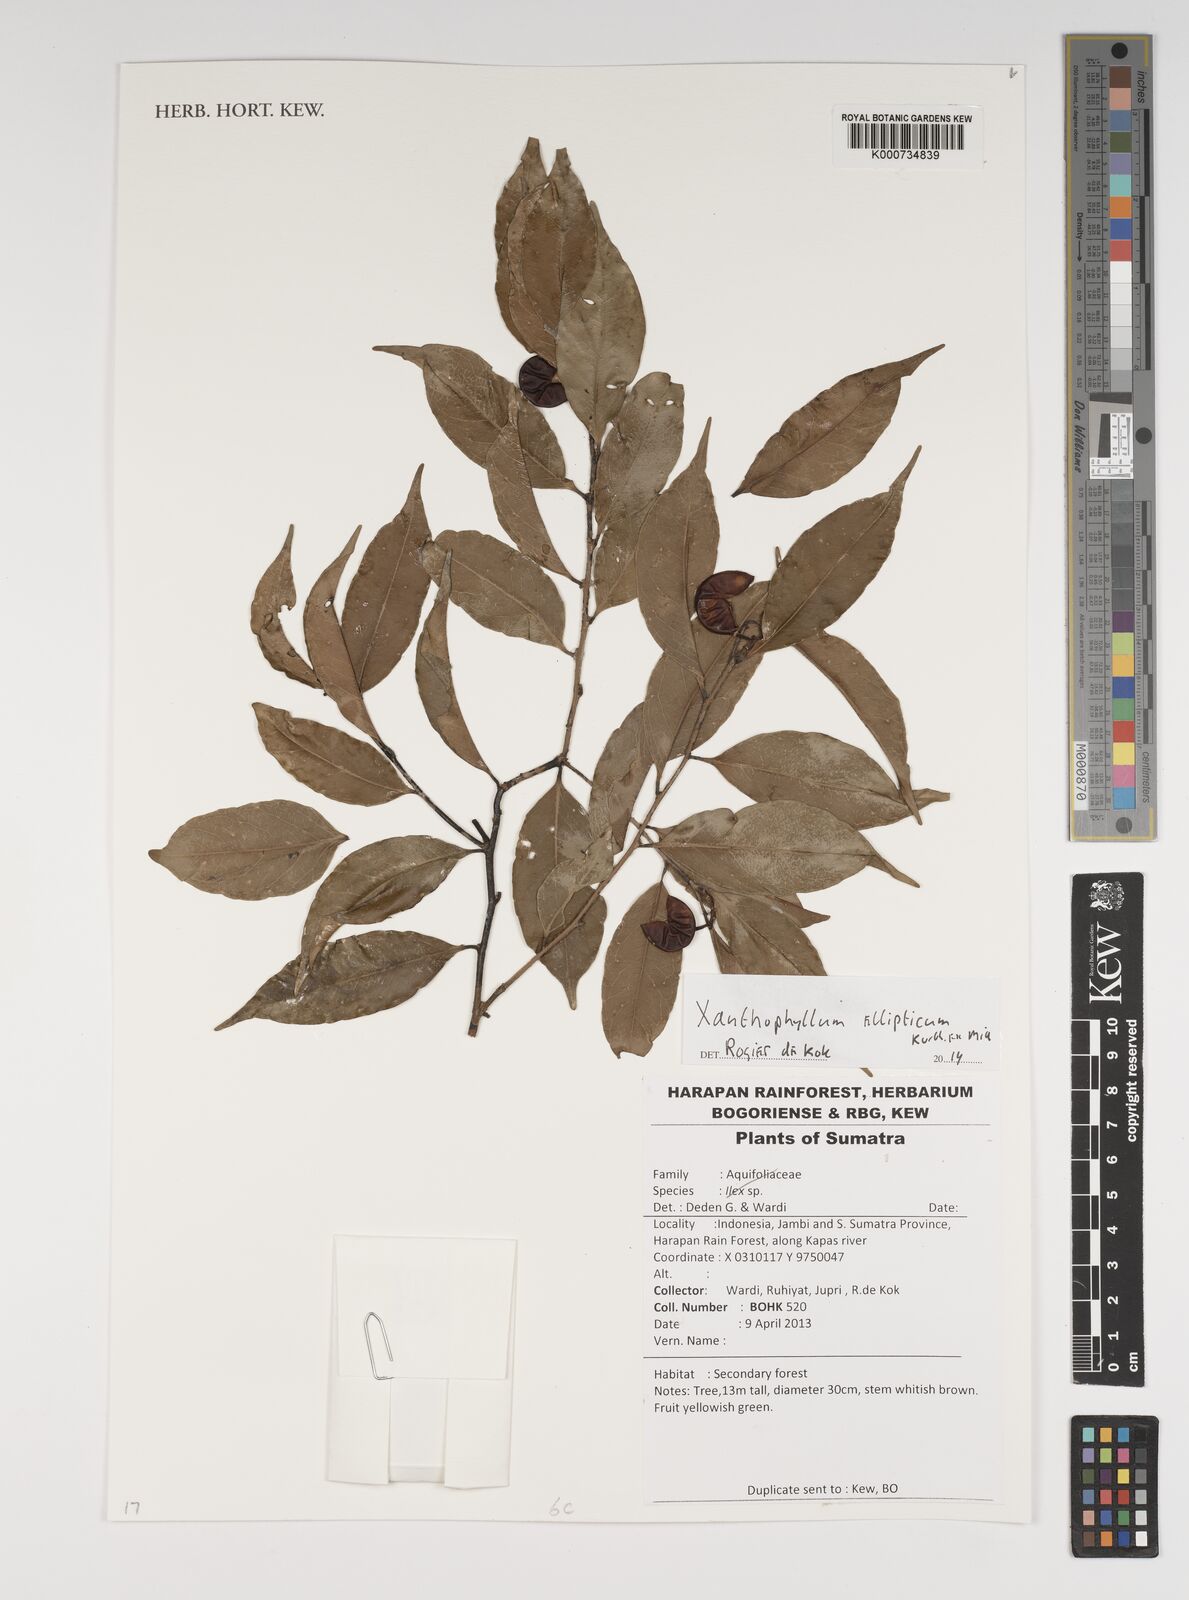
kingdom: Plantae
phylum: Tracheophyta
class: Magnoliopsida
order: Fabales
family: Polygalaceae
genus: Xanthophyllum
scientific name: Xanthophyllum ellipticum
